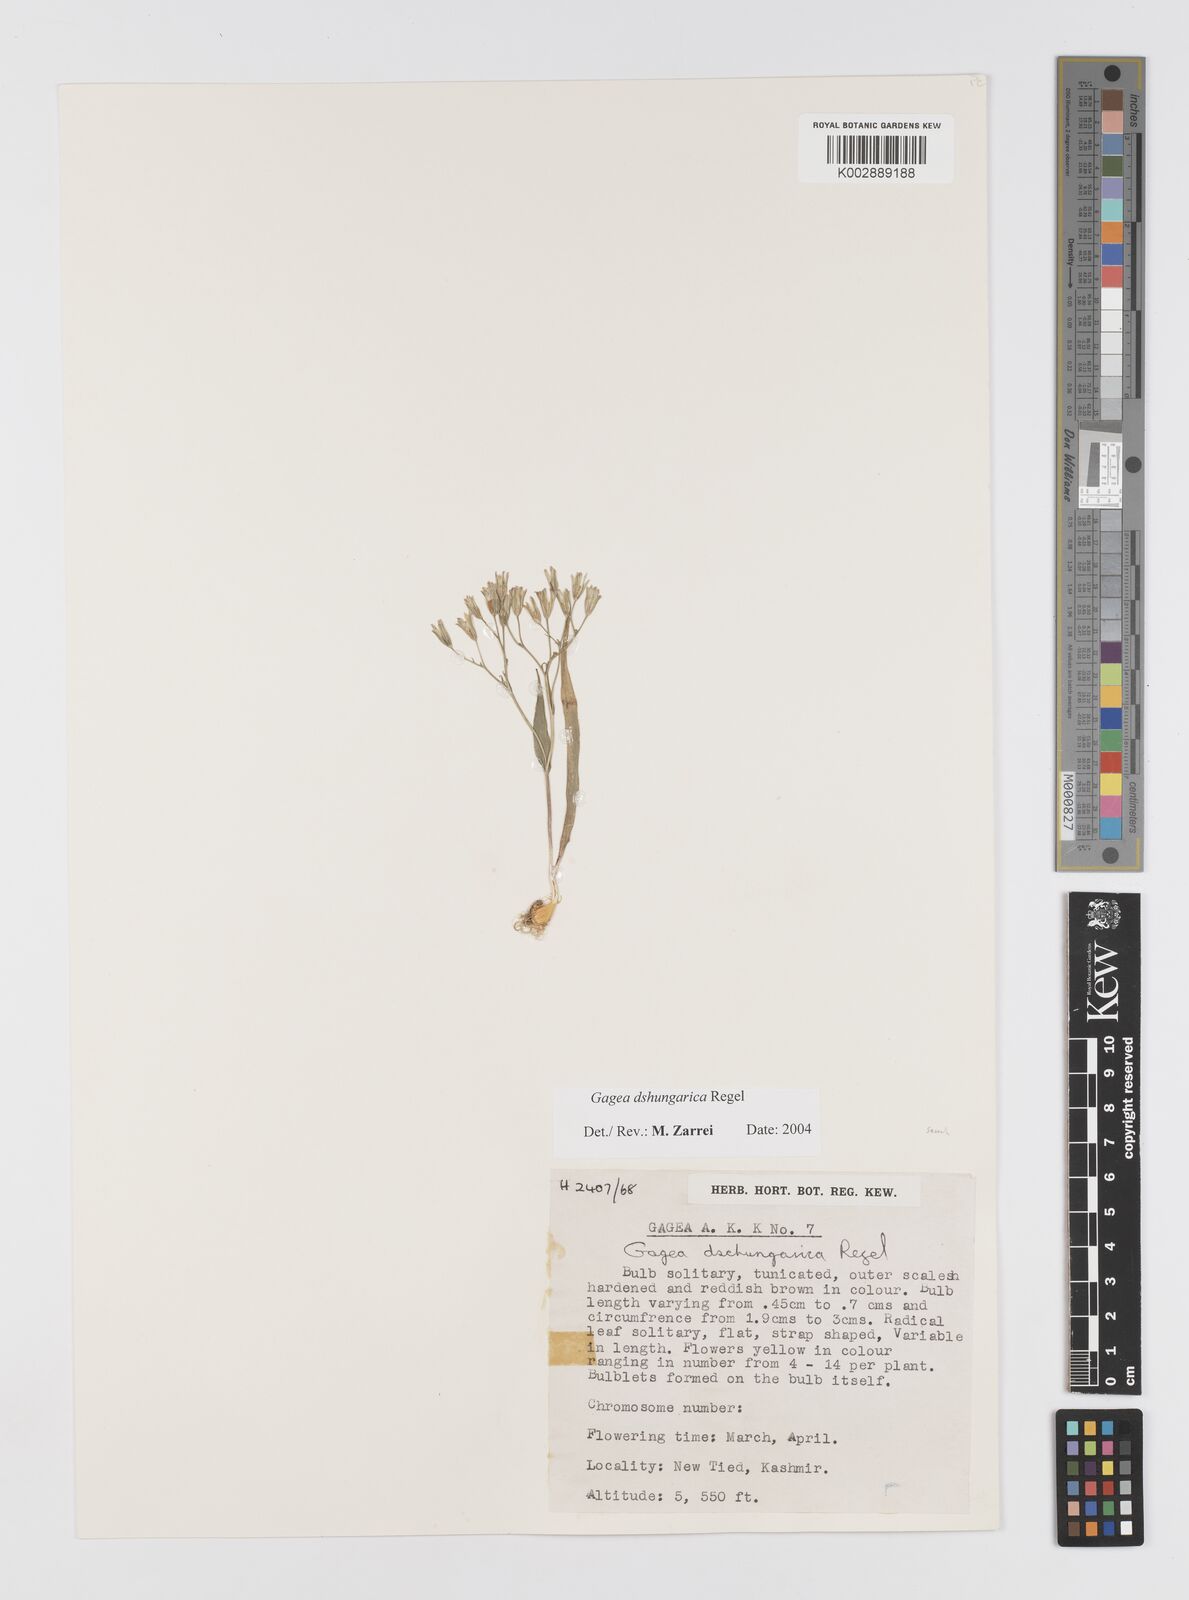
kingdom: Plantae
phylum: Tracheophyta
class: Liliopsida
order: Liliales
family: Liliaceae
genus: Gagea
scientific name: Gagea dschungarica
